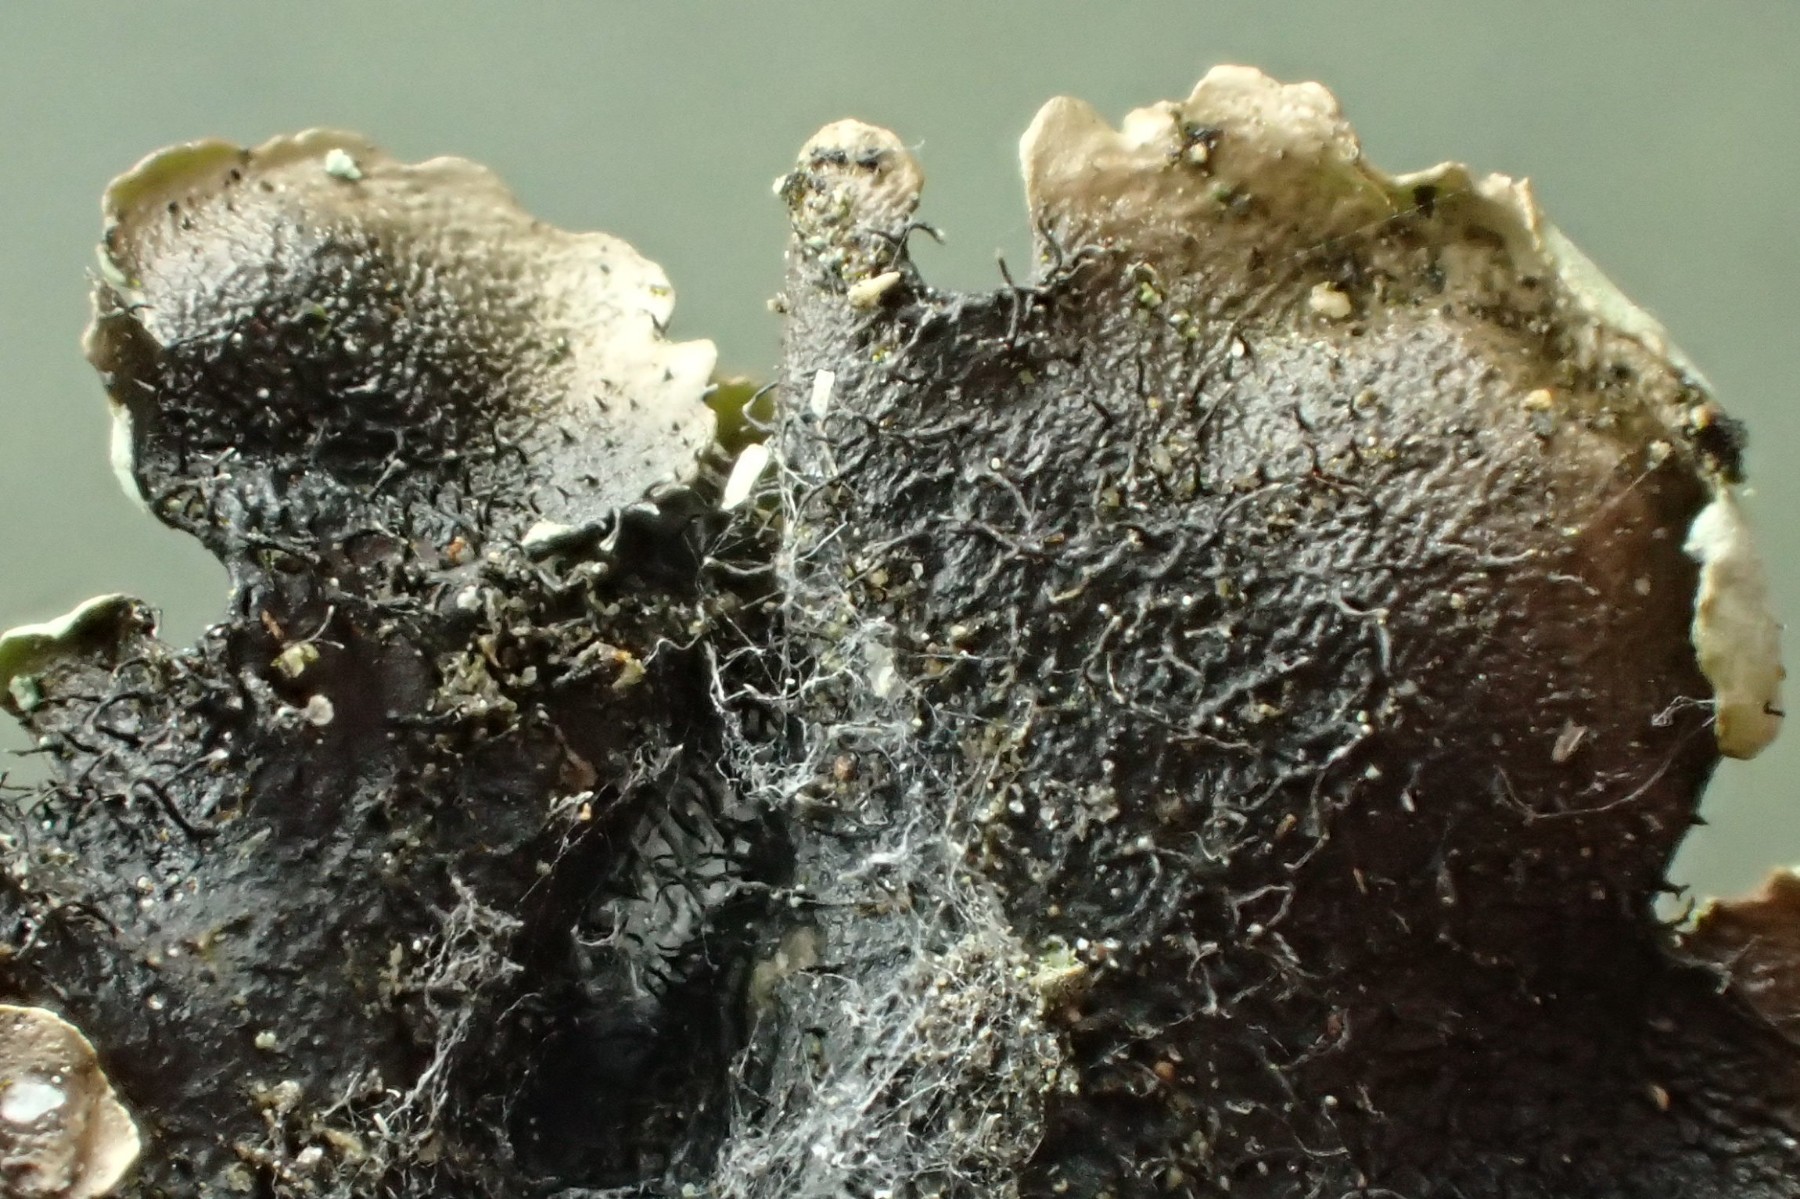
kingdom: Fungi
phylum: Ascomycota
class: Lecanoromycetes
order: Lecanorales
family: Parmeliaceae
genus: Hypotrachyna
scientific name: Hypotrachyna afrorevoluta
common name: kyst-skållav
